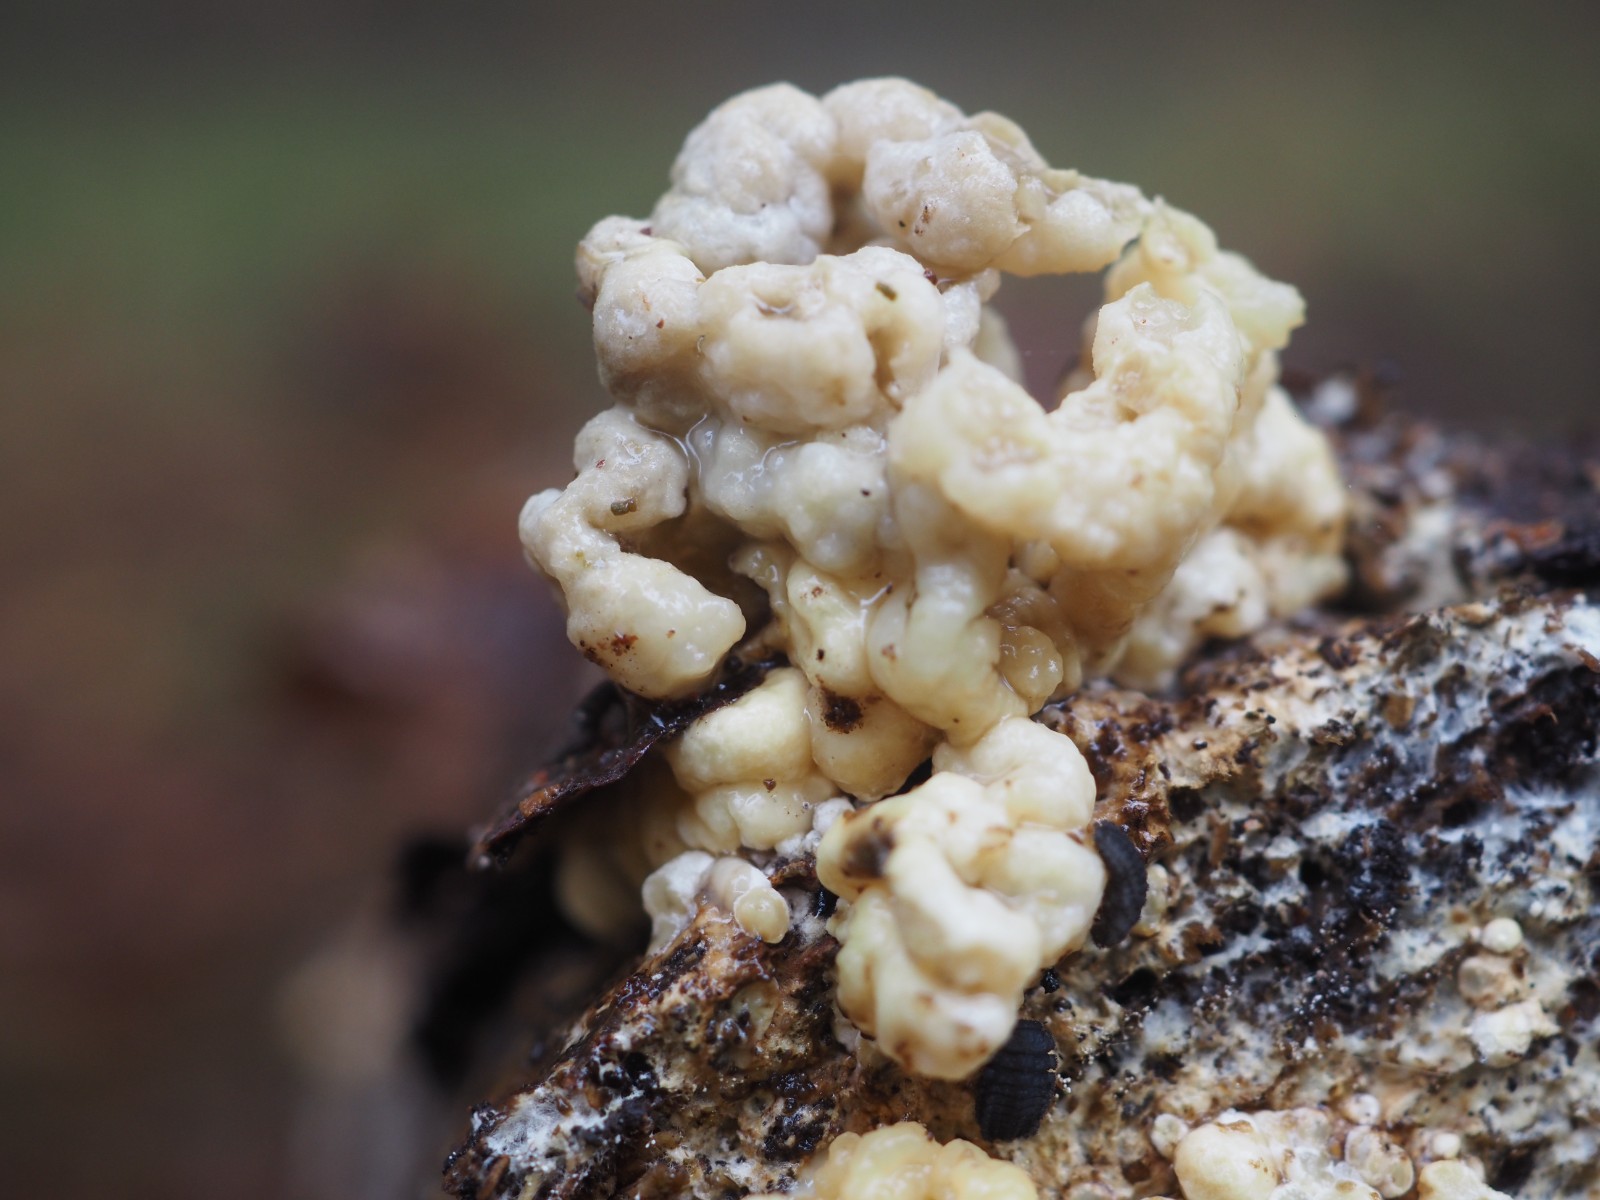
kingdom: Fungi
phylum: Ascomycota
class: Sordariomycetes
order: Xylariales
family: Hypoxylaceae
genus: Nodulisporium
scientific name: Nodulisporium cecidiogenes
